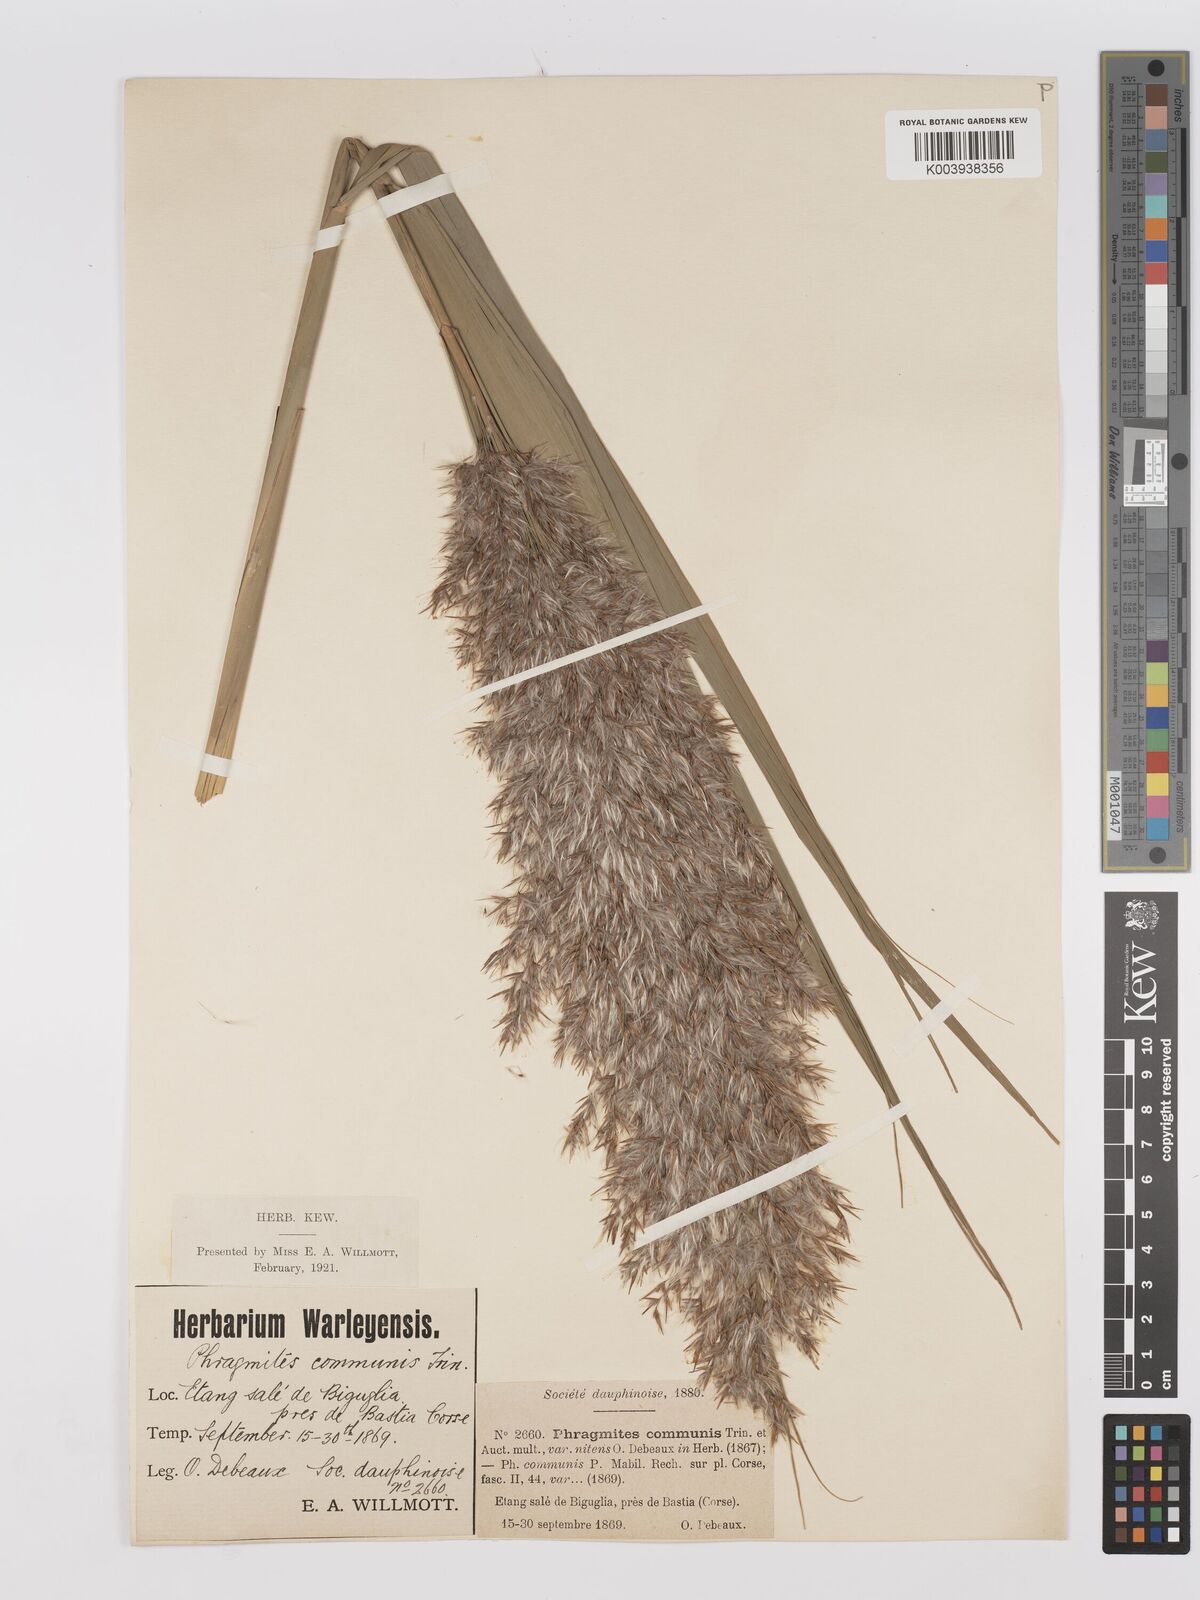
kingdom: Plantae
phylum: Tracheophyta
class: Liliopsida
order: Poales
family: Poaceae
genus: Phragmites
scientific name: Phragmites australis
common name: Common reed
